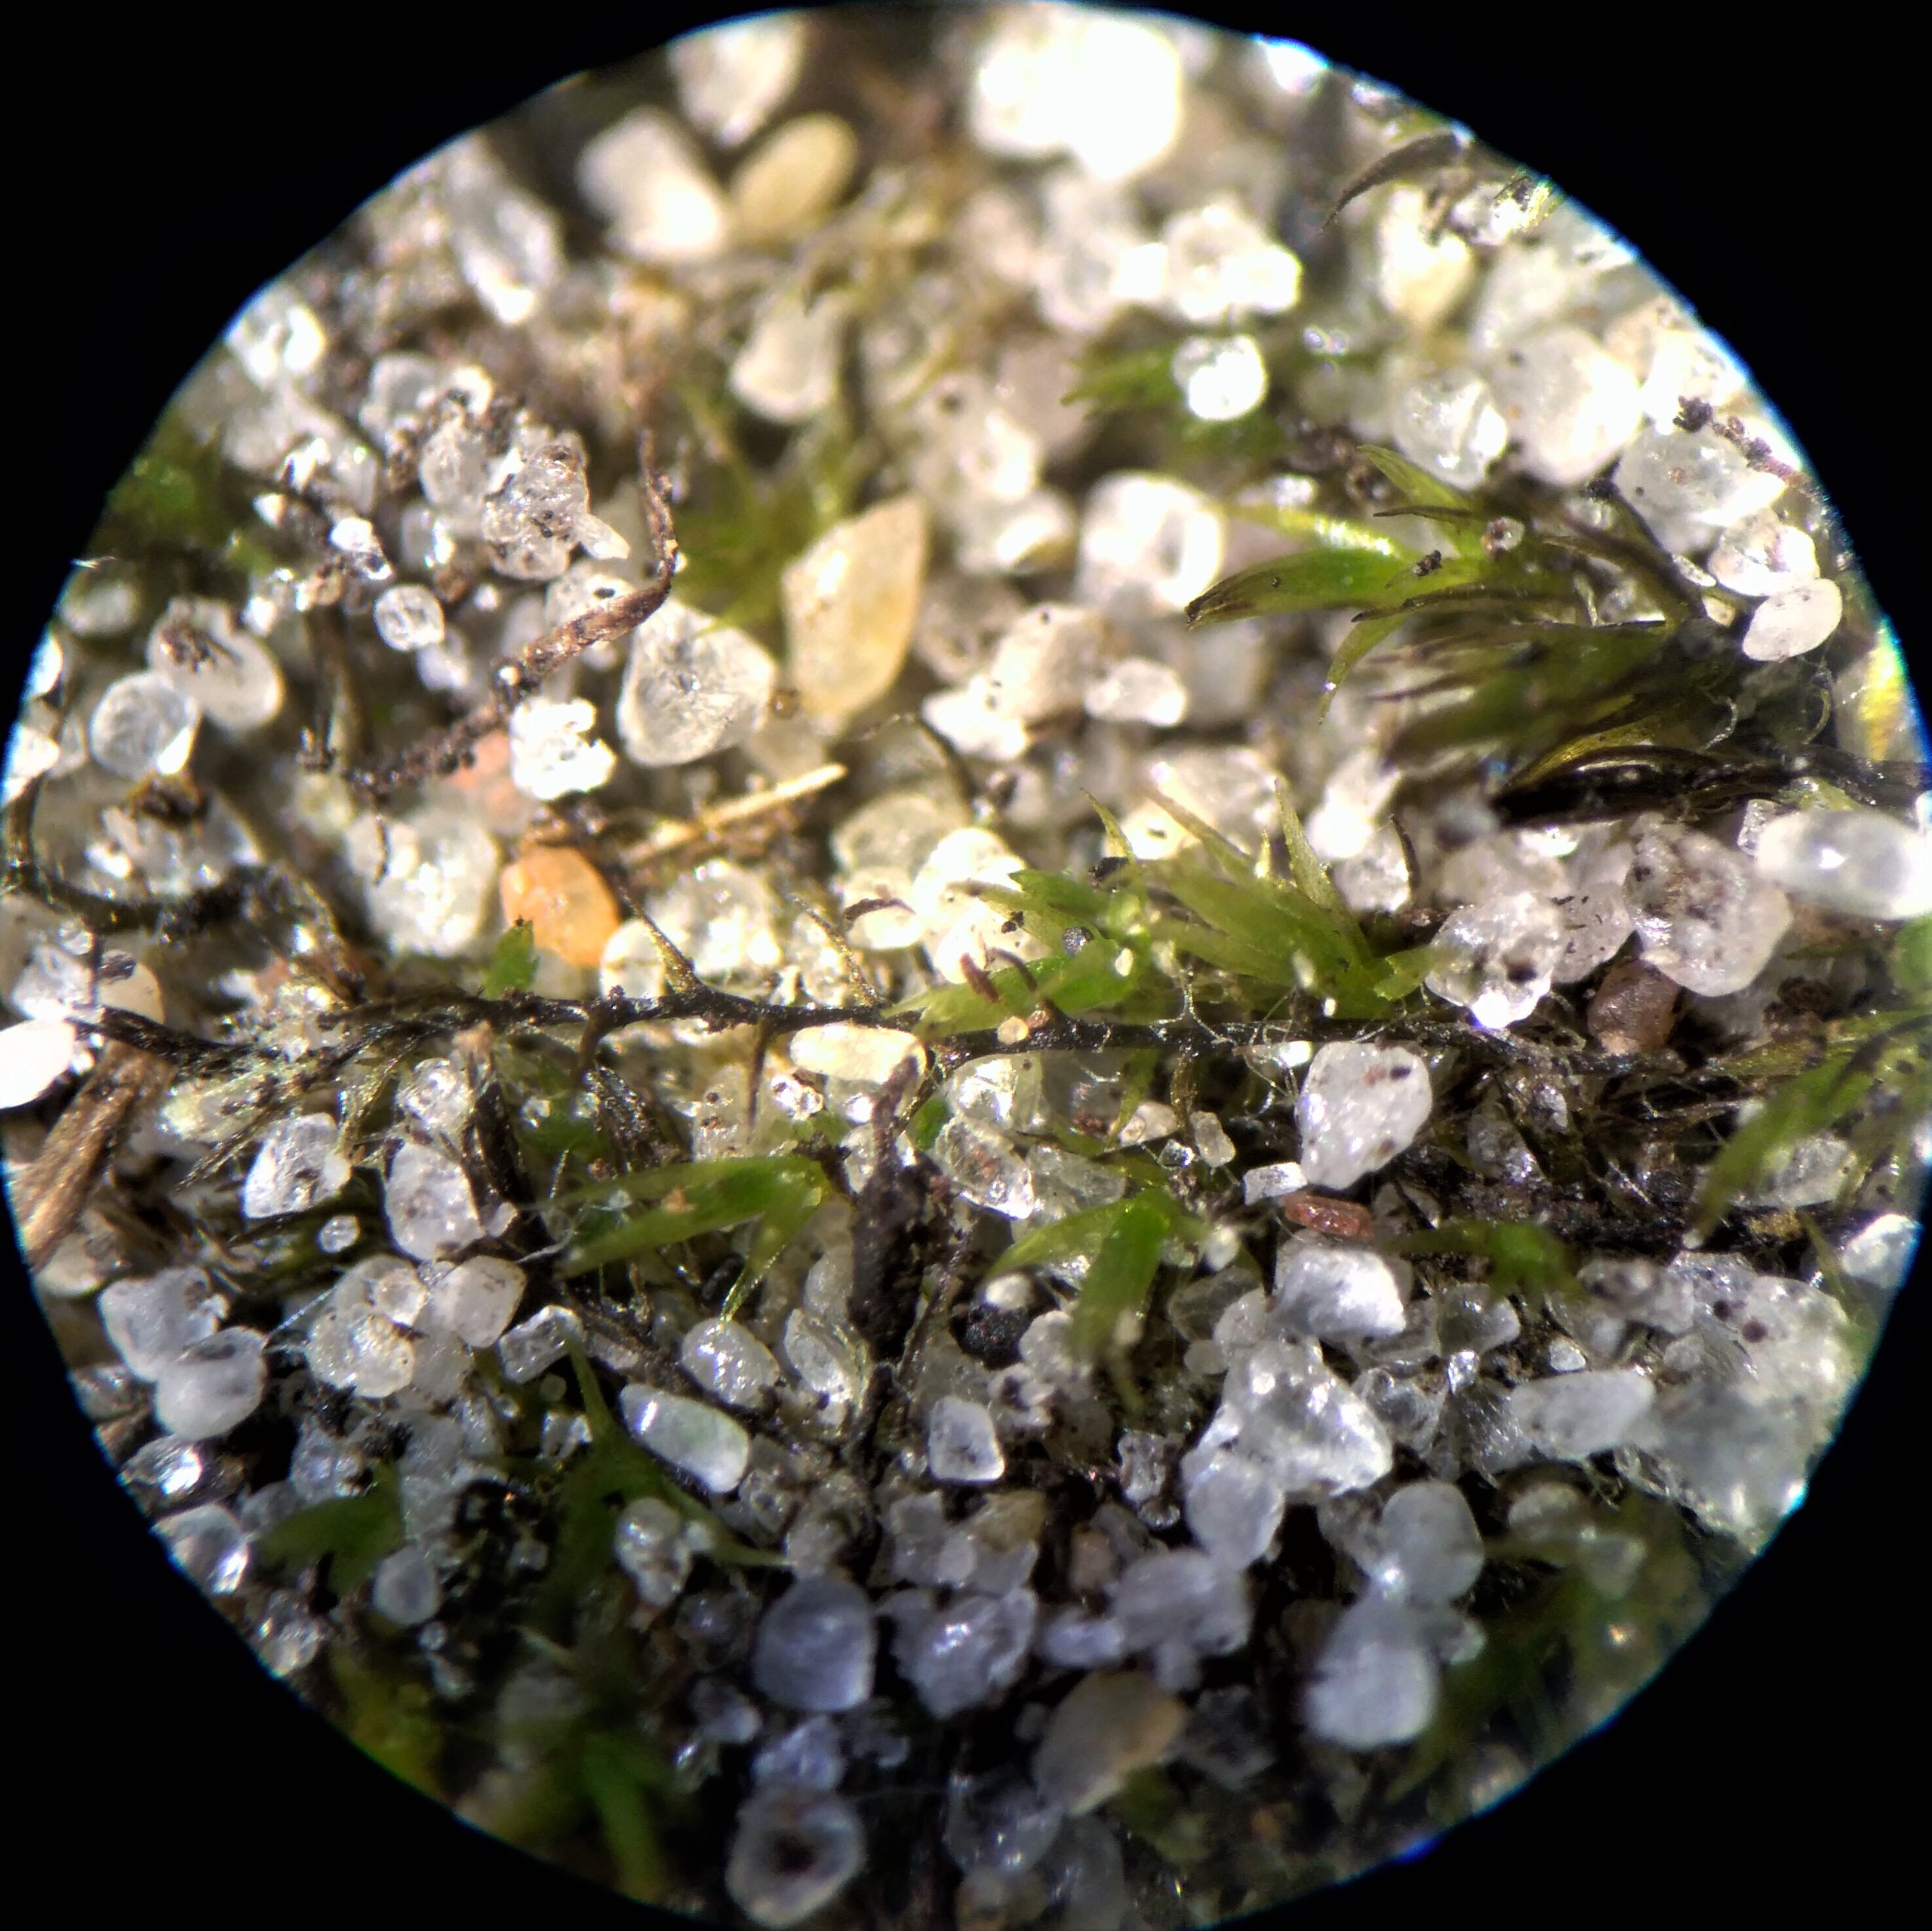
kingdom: Plantae
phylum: Bryophyta
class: Bryopsida
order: Archidiales
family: Archidiaceae
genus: Archidium
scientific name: Archidium alternifolium
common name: Stor sporemos
